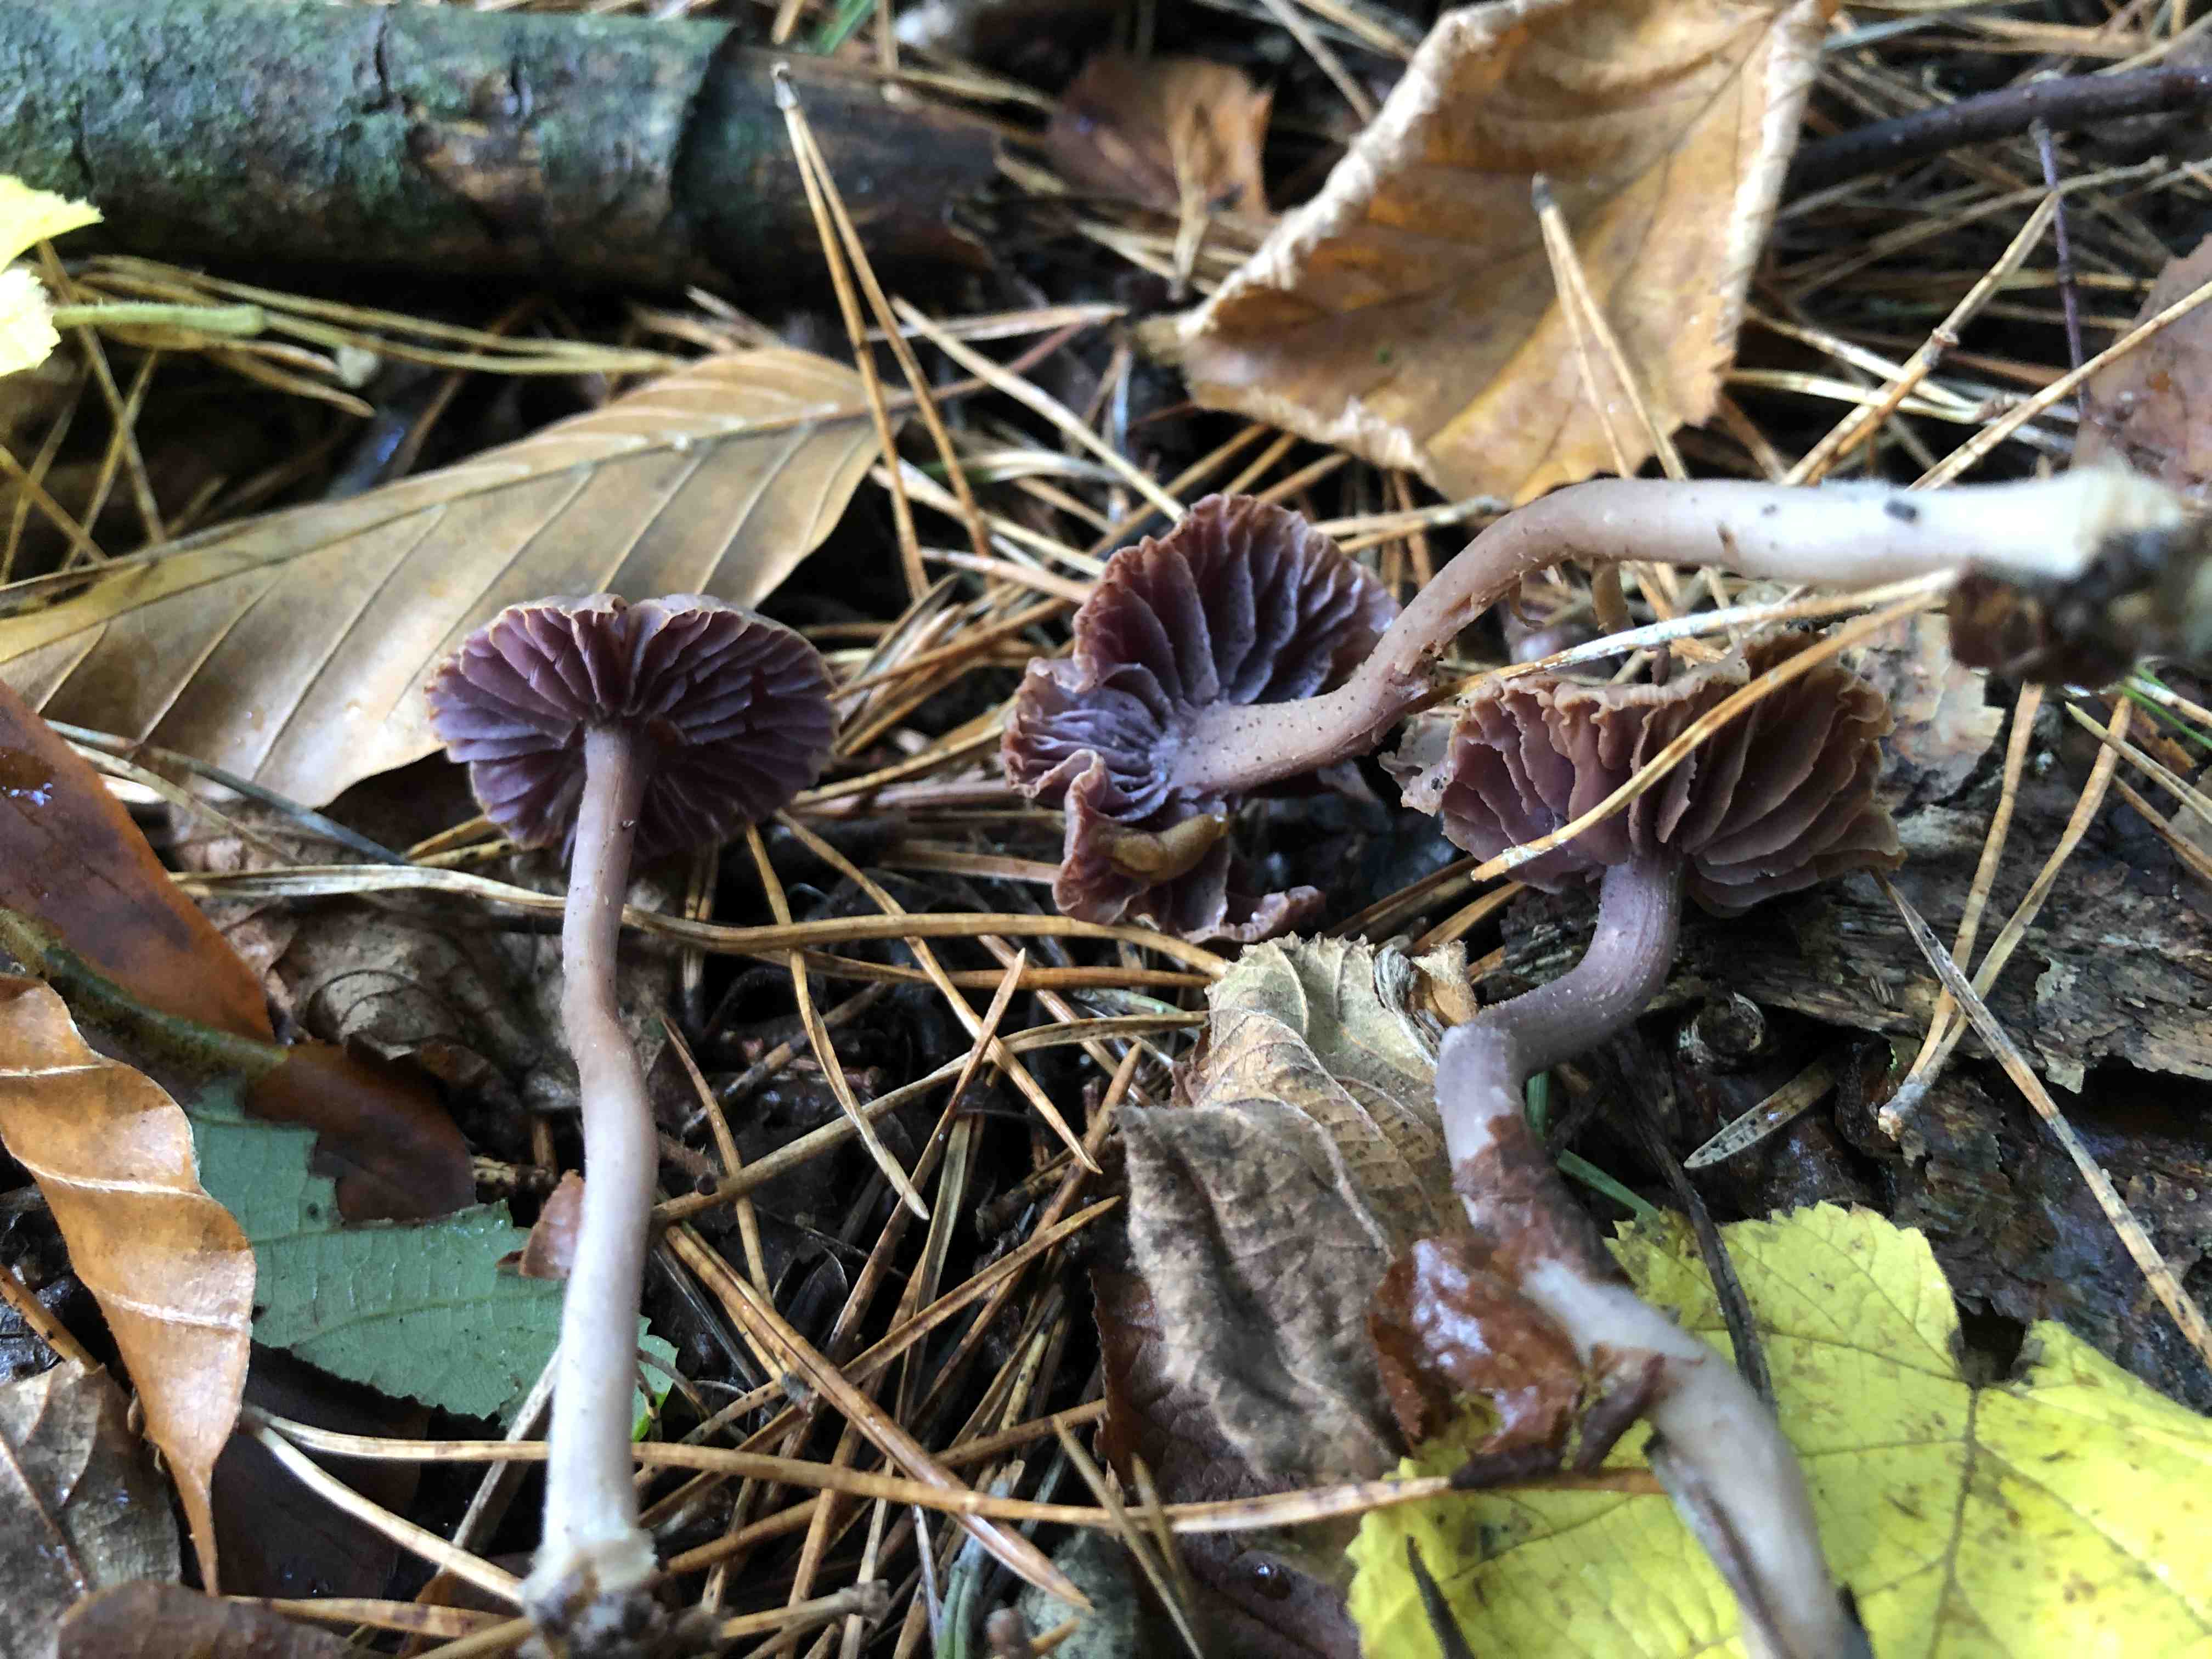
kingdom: Fungi
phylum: Basidiomycota
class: Agaricomycetes
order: Agaricales
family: Hydnangiaceae
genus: Laccaria
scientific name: Laccaria amethystina
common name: violet ametysthat
